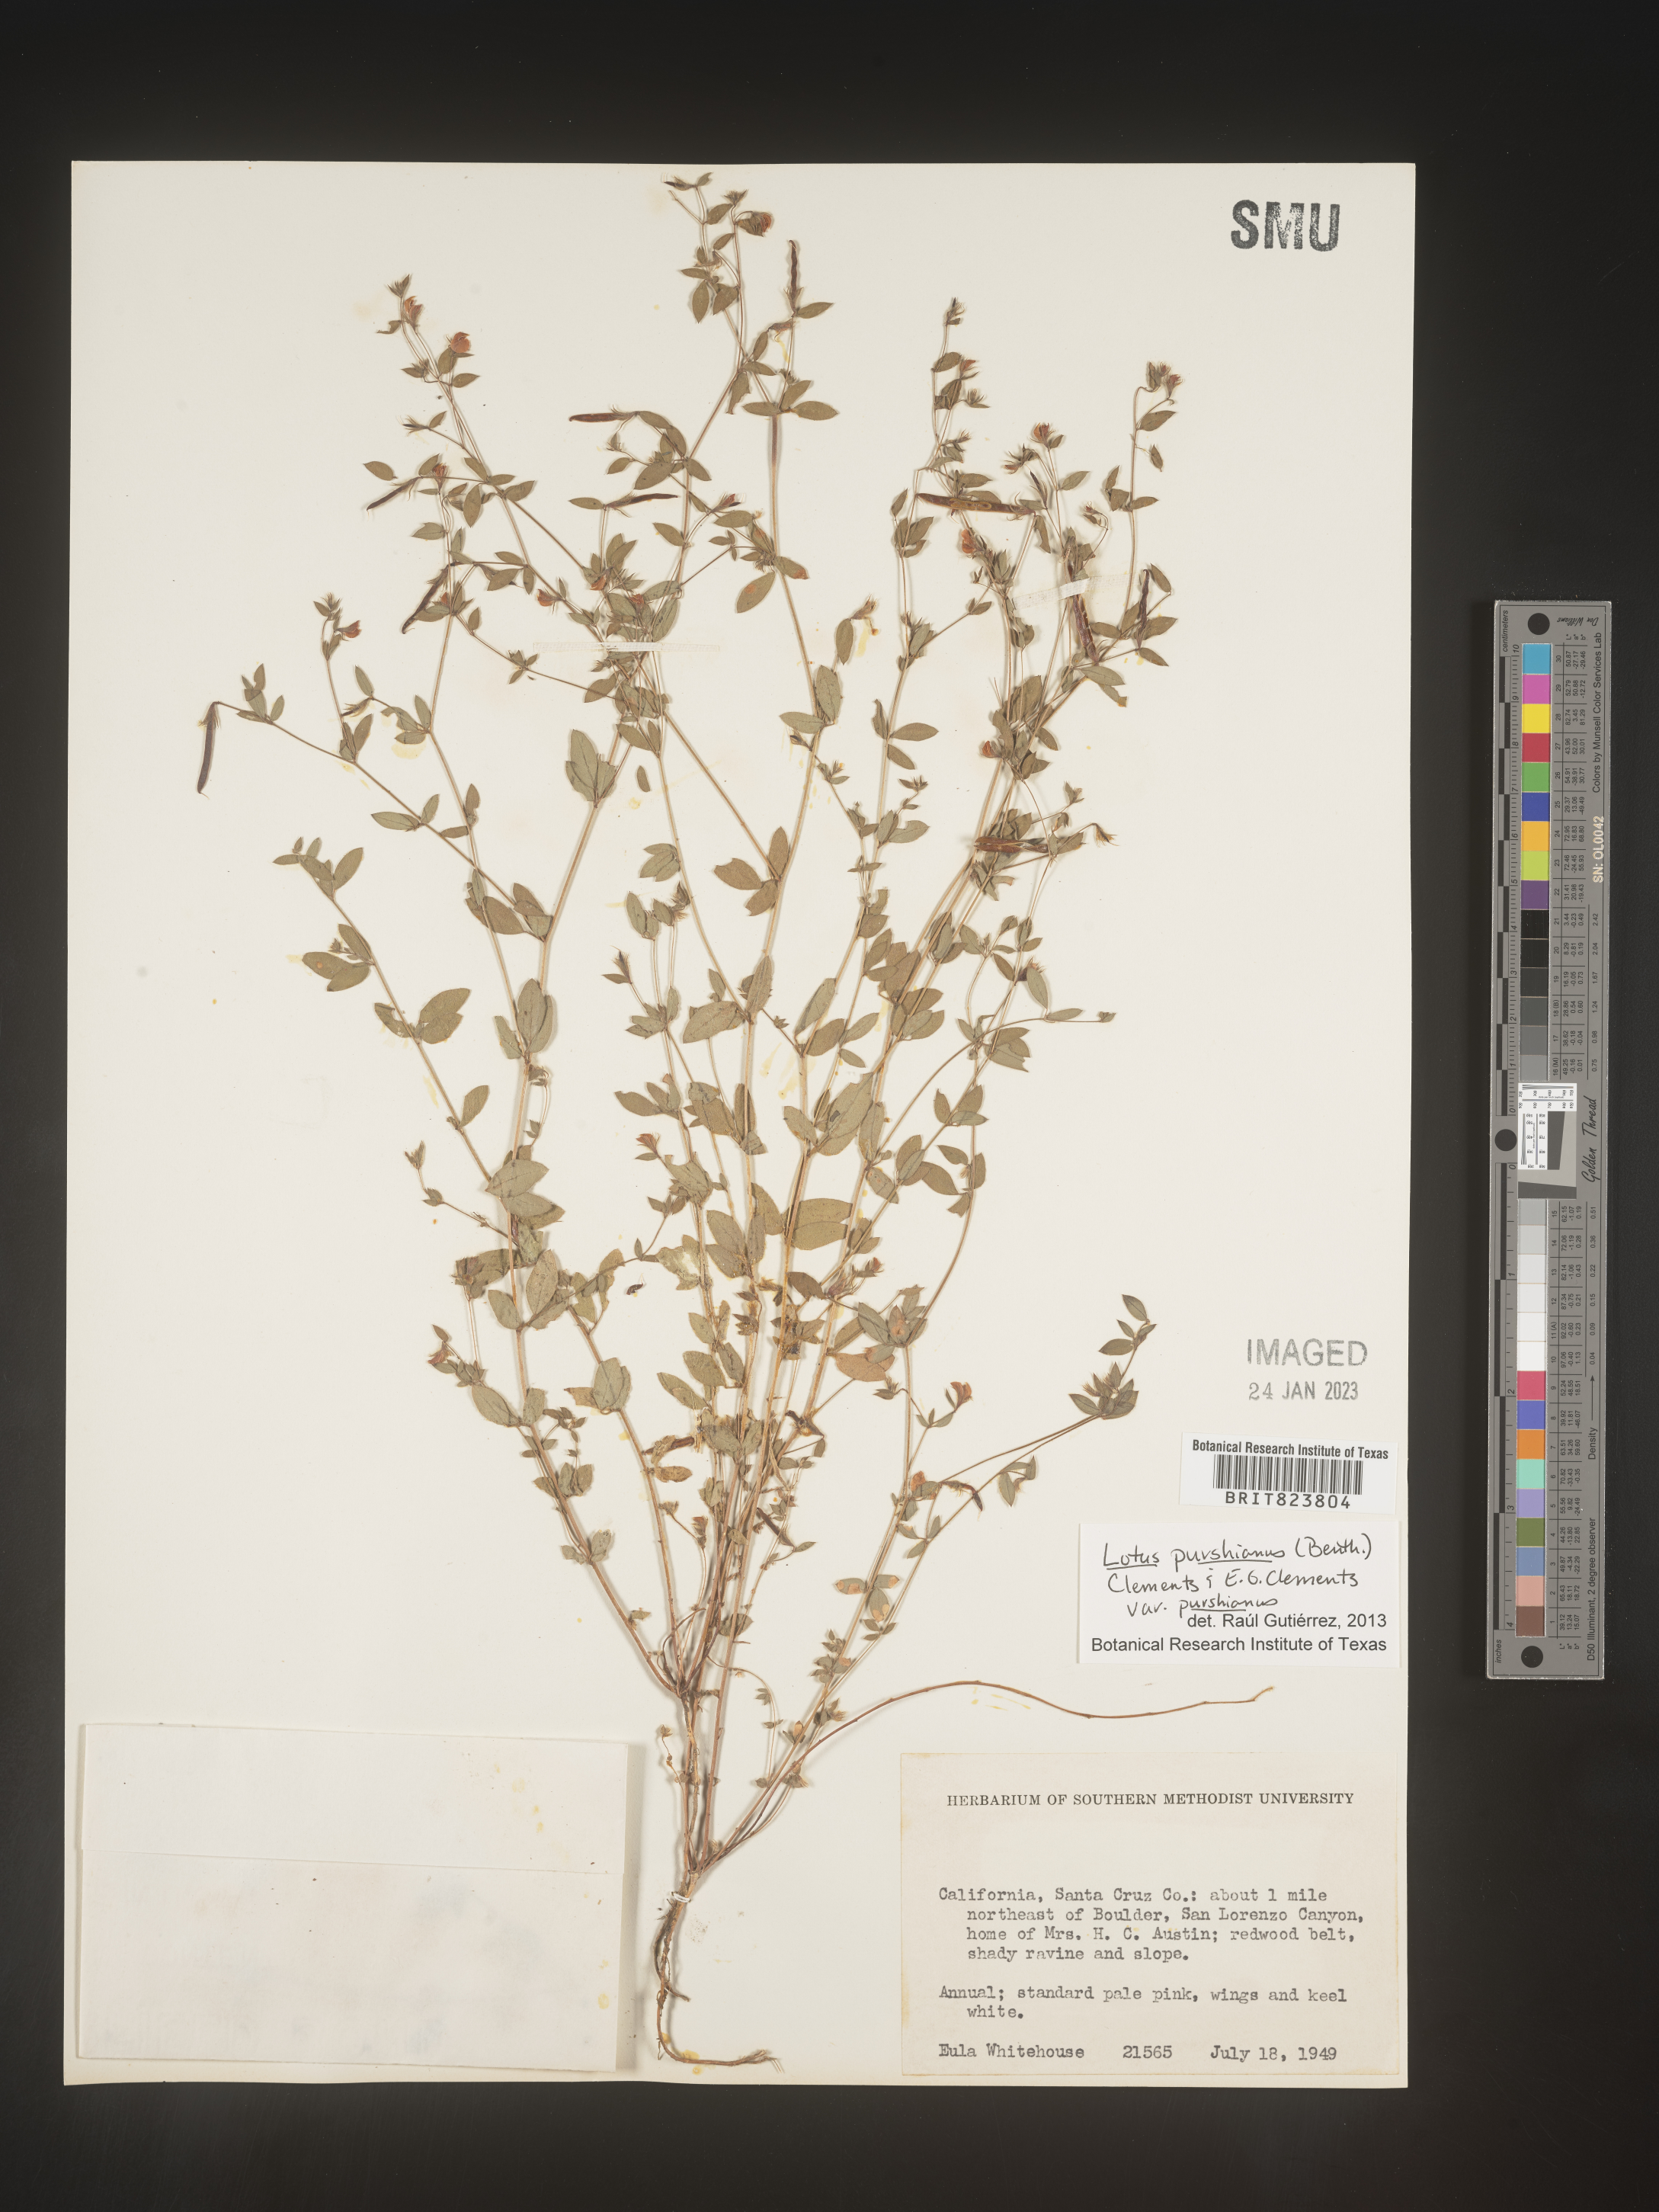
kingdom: Plantae
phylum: Tracheophyta
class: Magnoliopsida
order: Fabales
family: Fabaceae
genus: Acmispon
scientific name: Acmispon americanus
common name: American bird's-foot trefoil
